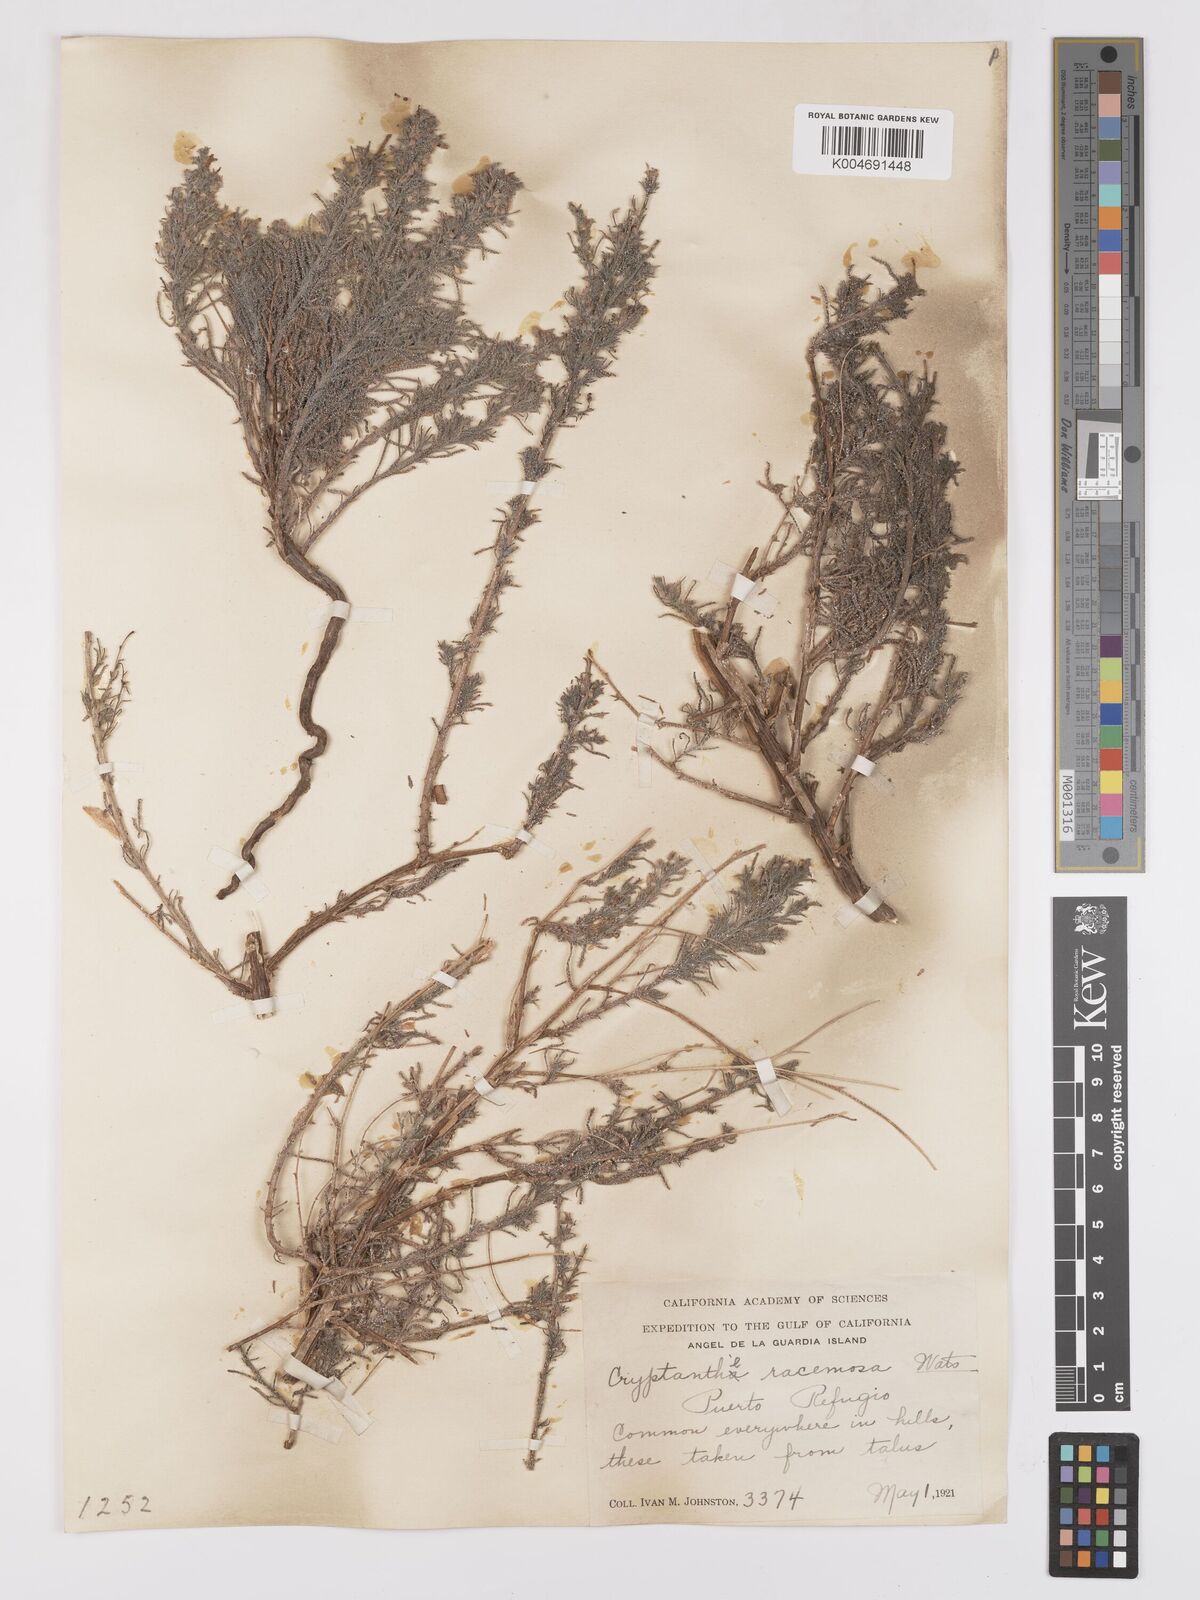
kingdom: Plantae
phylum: Tracheophyta
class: Magnoliopsida
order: Boraginales
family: Boraginaceae
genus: Johnstonella
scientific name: Johnstonella racemosa
